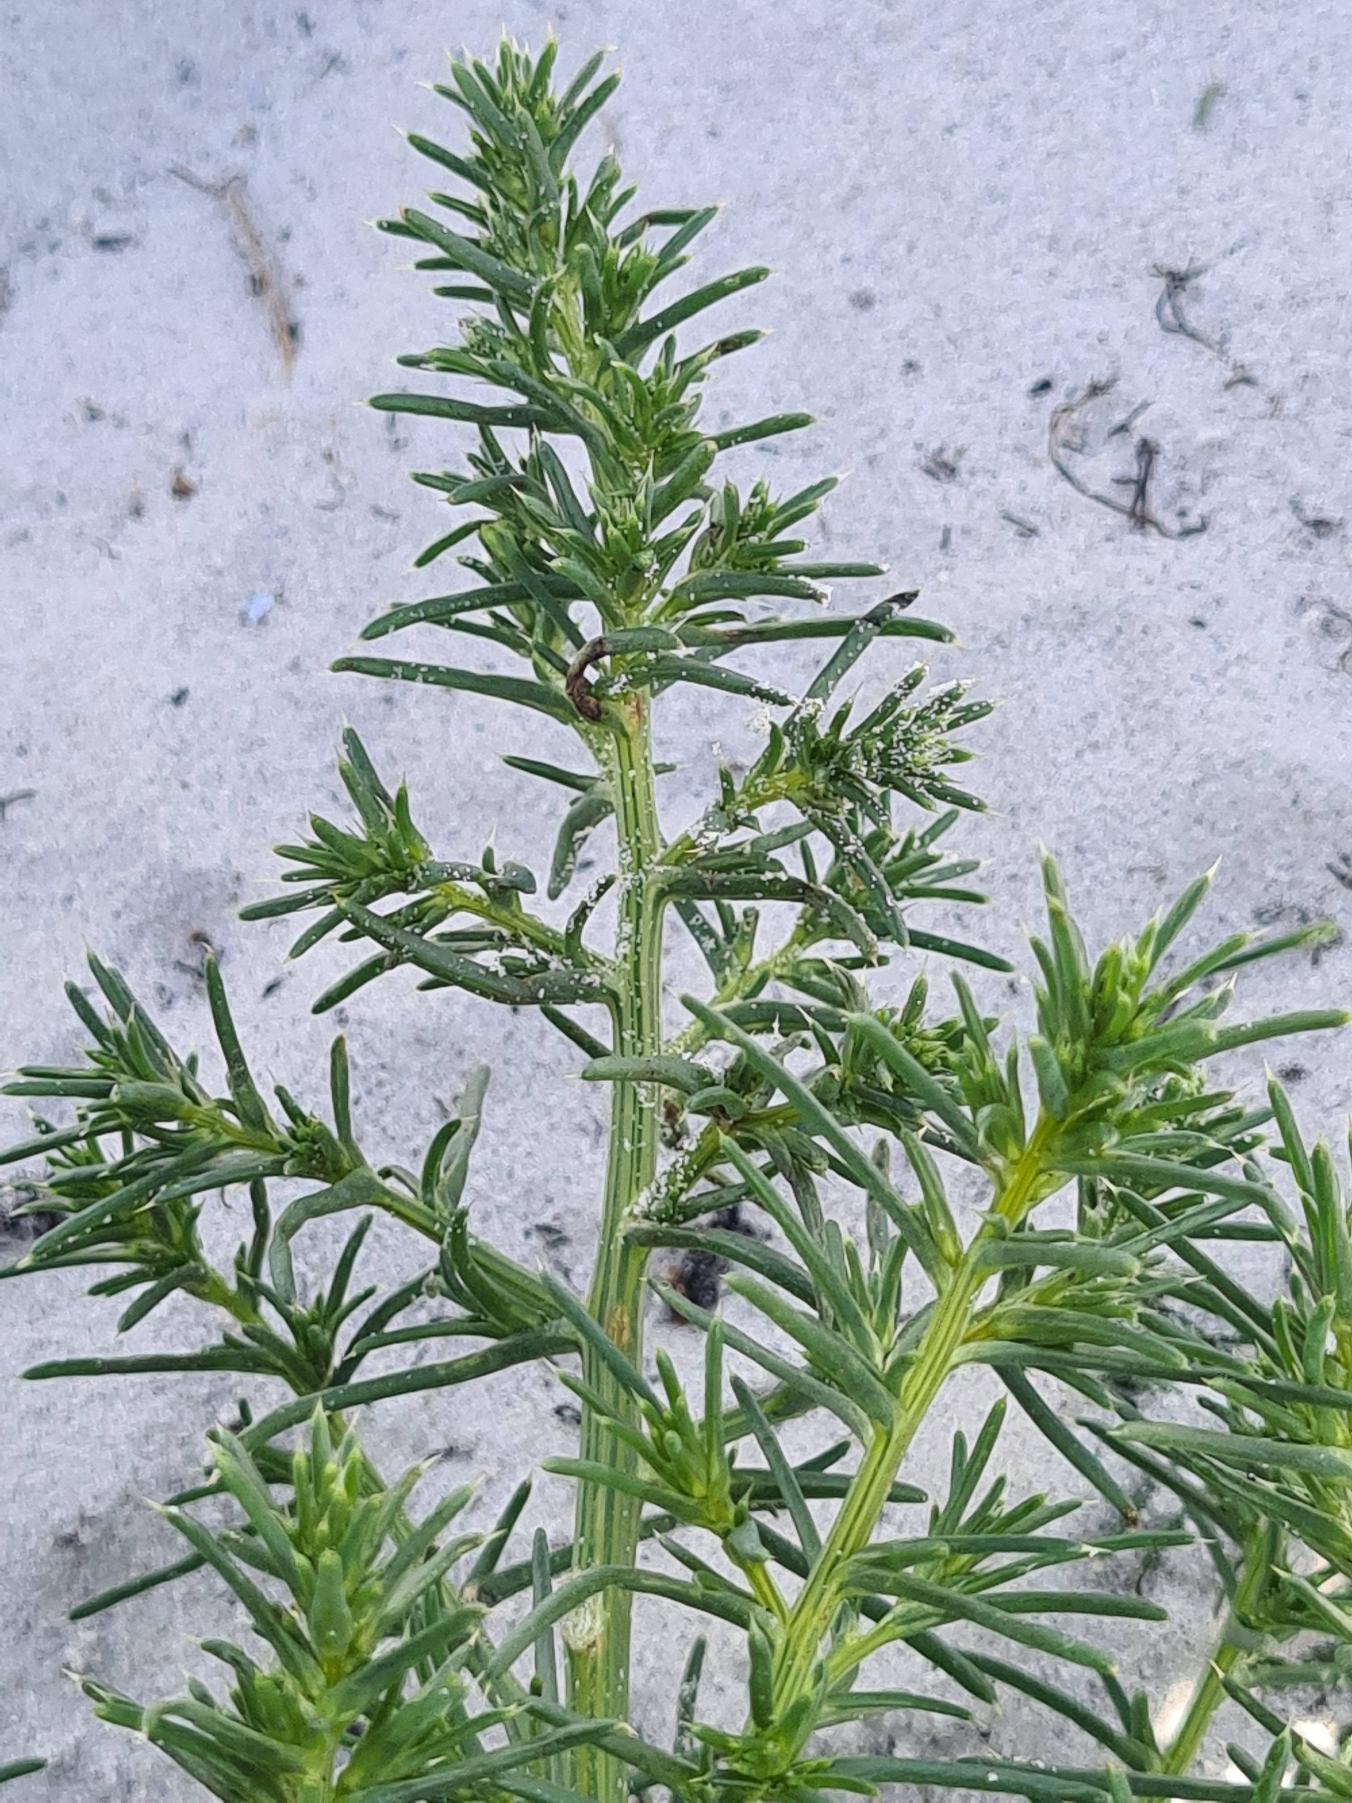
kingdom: Plantae
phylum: Tracheophyta
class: Magnoliopsida
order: Caryophyllales
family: Amaranthaceae
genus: Salsola
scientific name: Salsola kali
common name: Sodaurt
